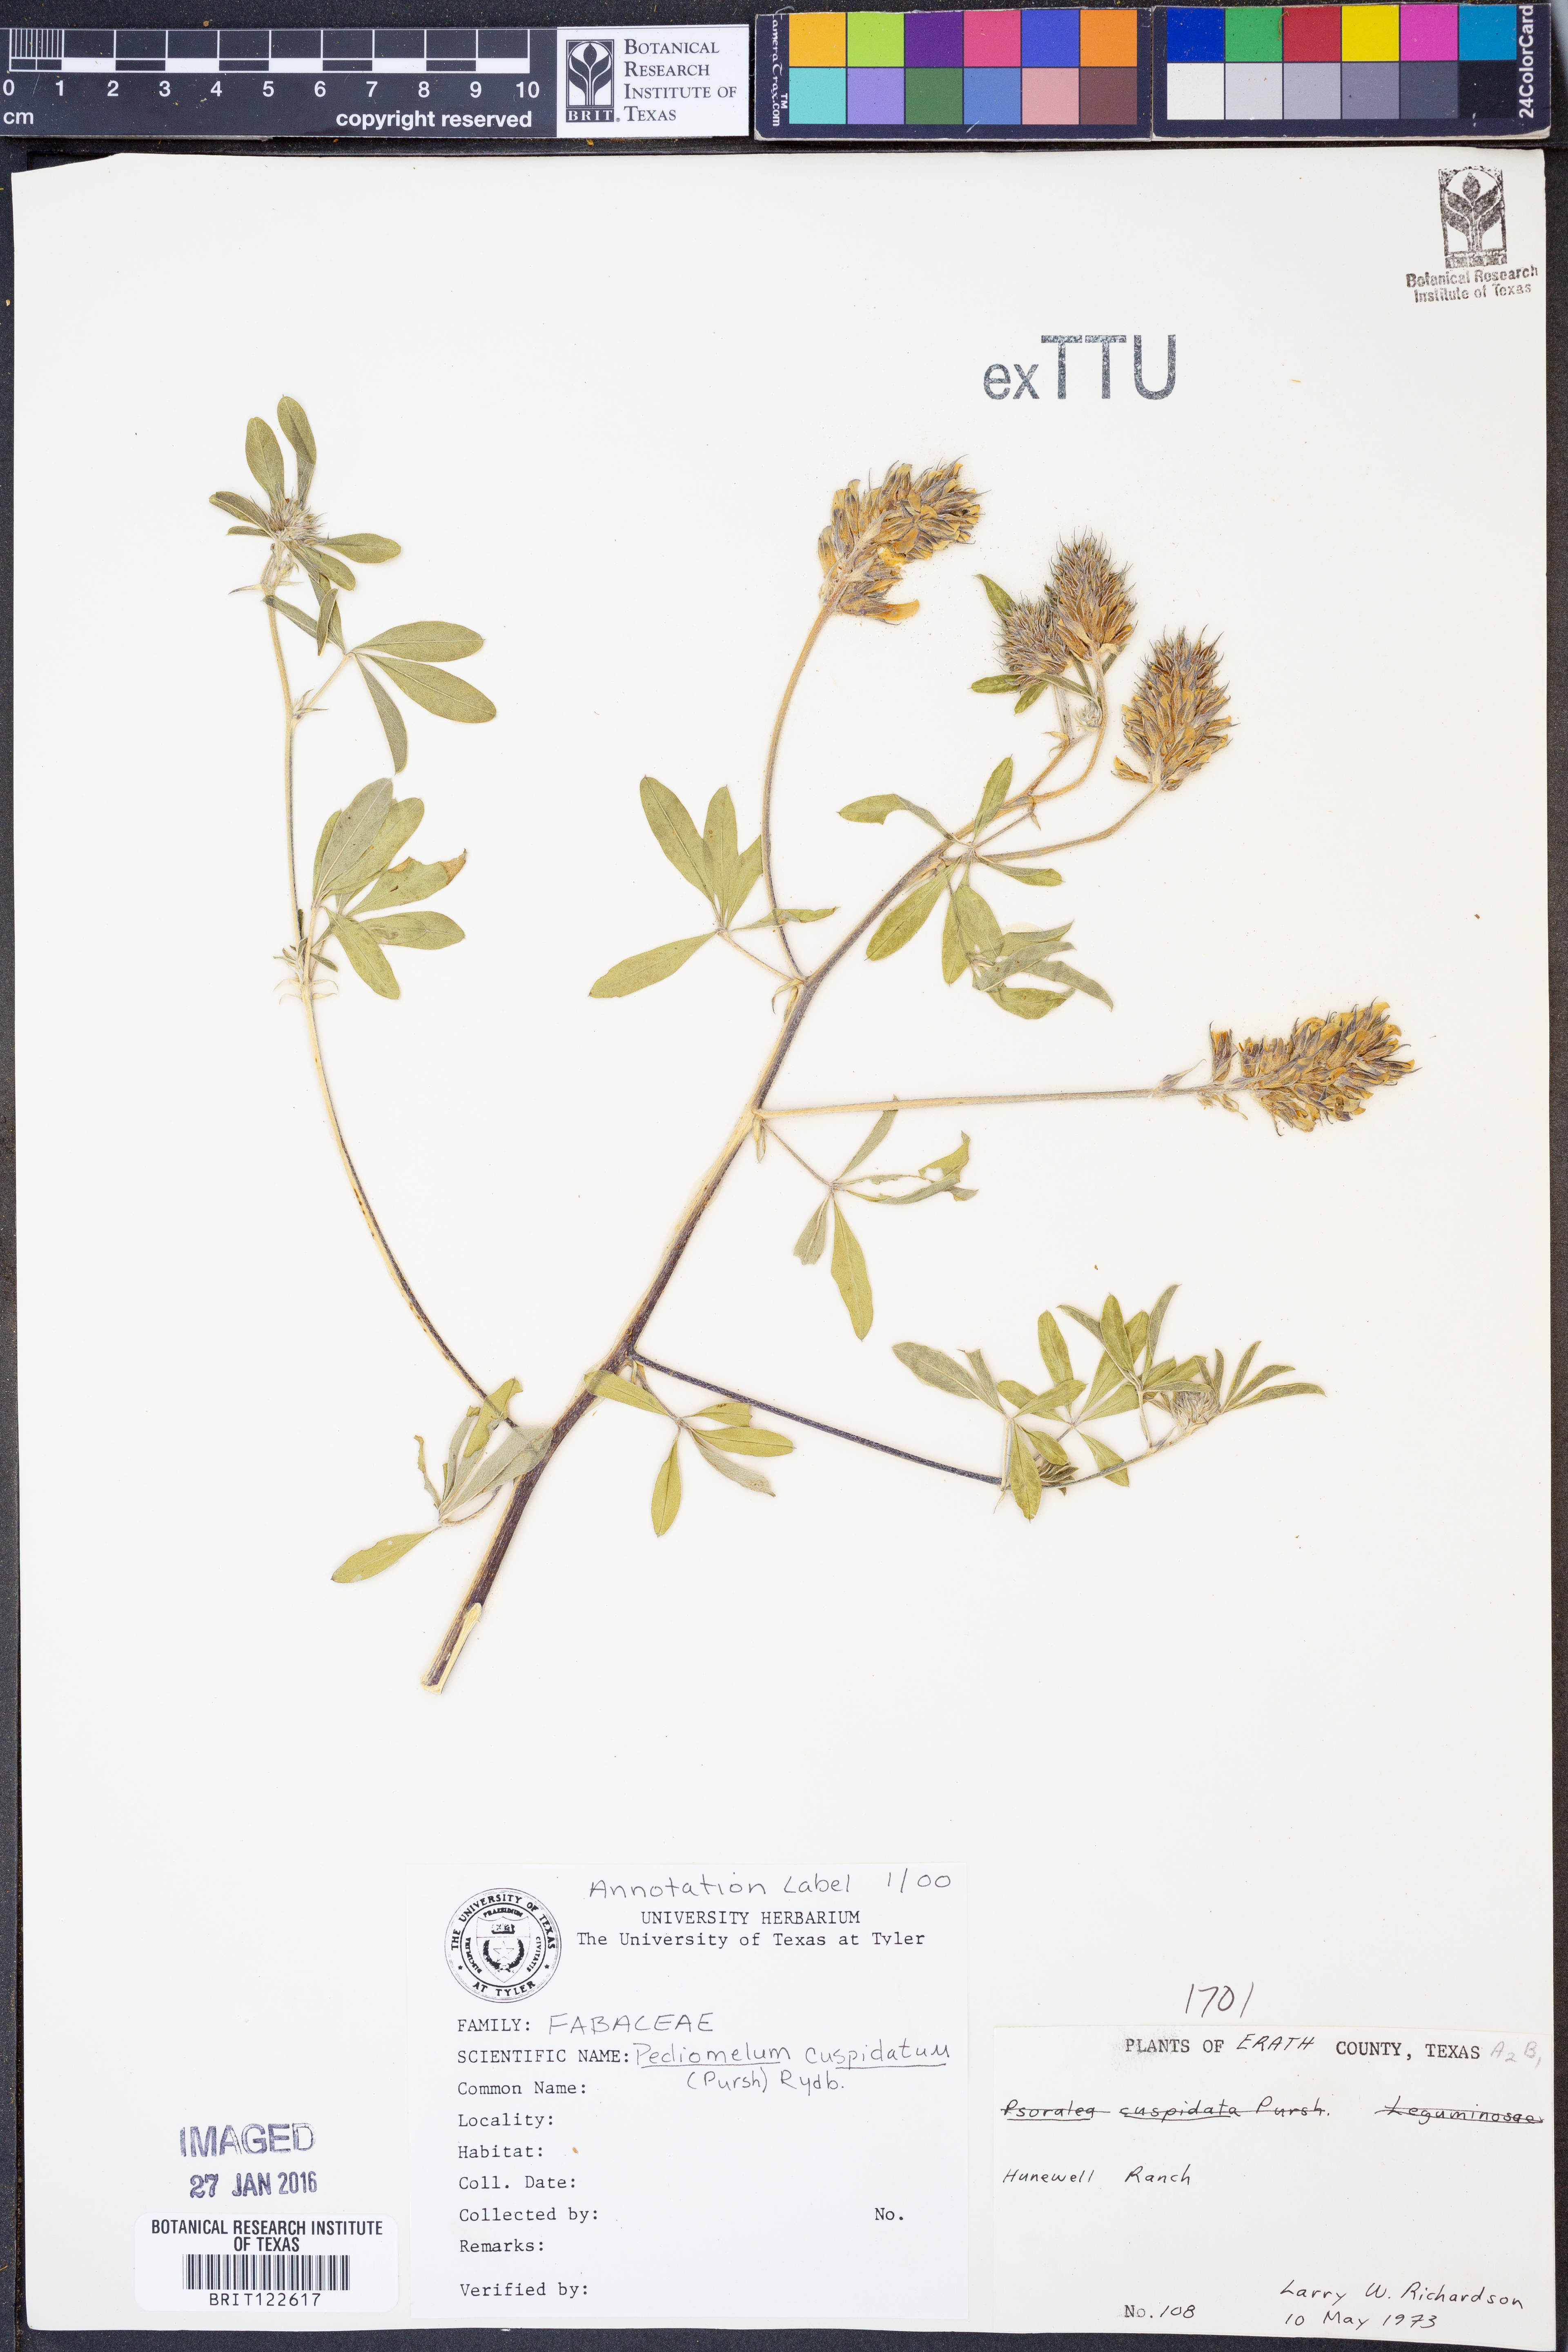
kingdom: Plantae
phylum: Tracheophyta
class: Magnoliopsida
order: Fabales
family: Fabaceae
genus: Pediomelum
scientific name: Pediomelum cuspidatum
